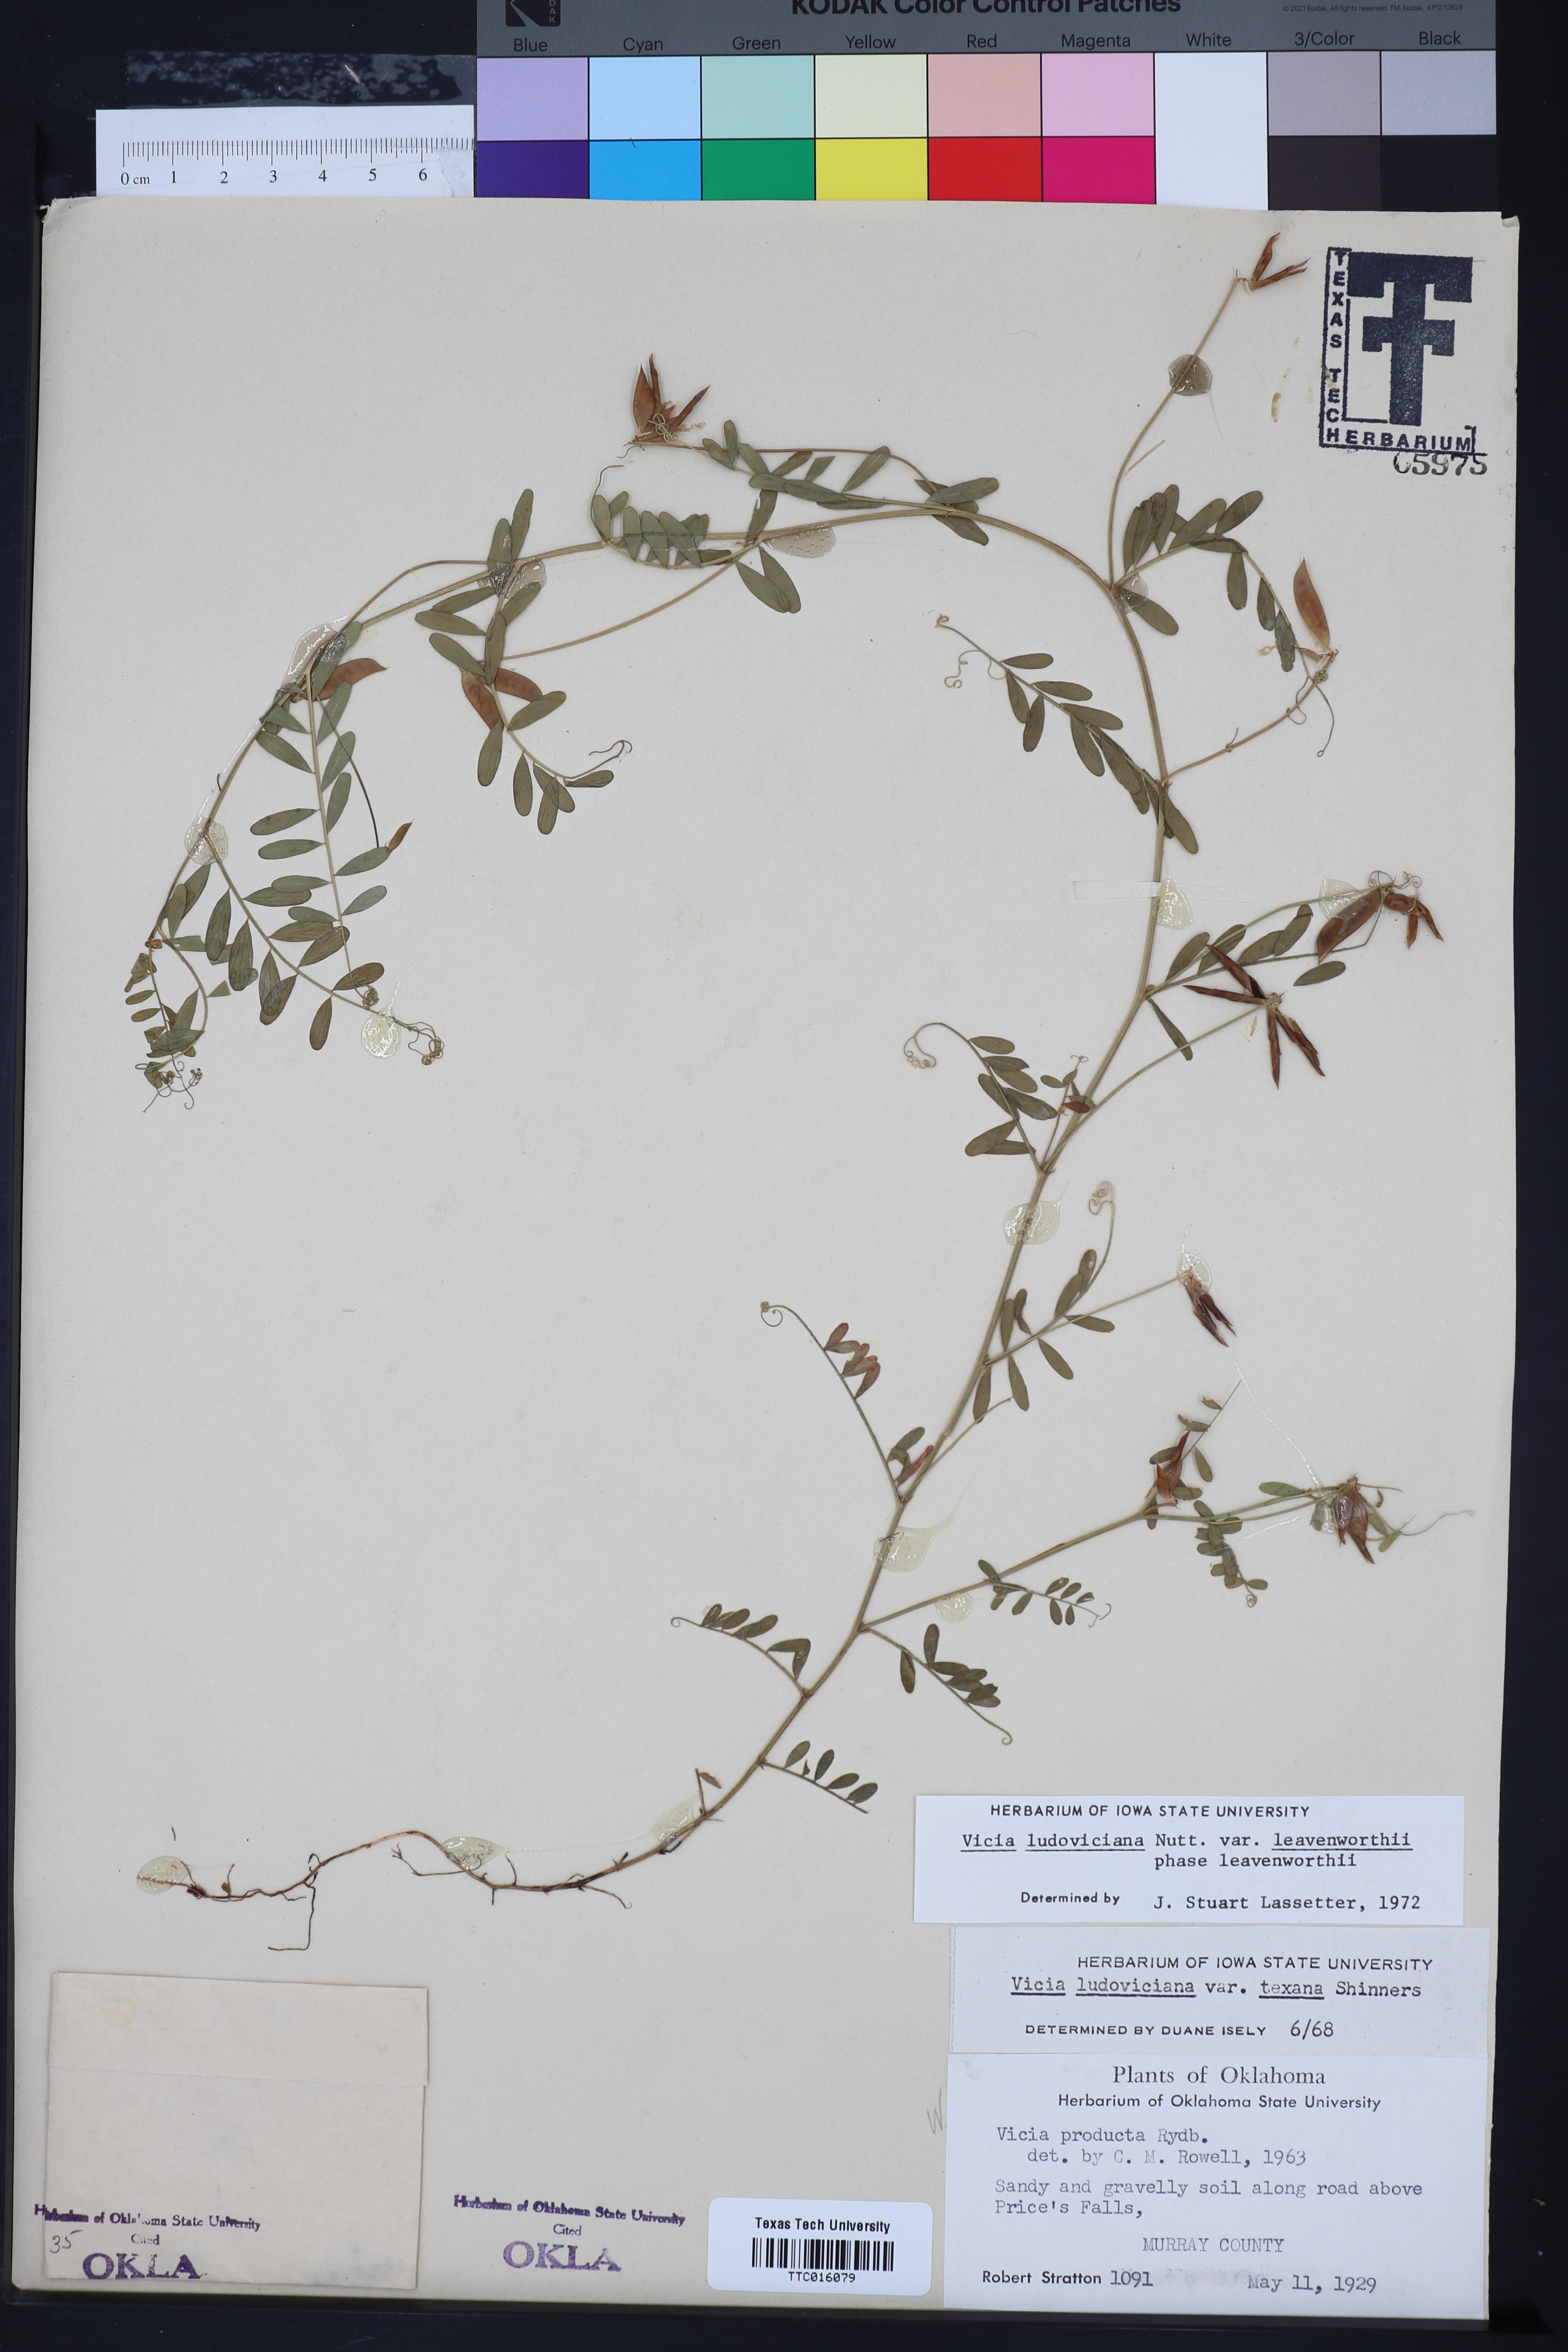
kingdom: Plantae
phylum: Tracheophyta
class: Magnoliopsida
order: Fabales
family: Fabaceae
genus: Vicia
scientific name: Vicia ludoviciana
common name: Louisiana vetch
